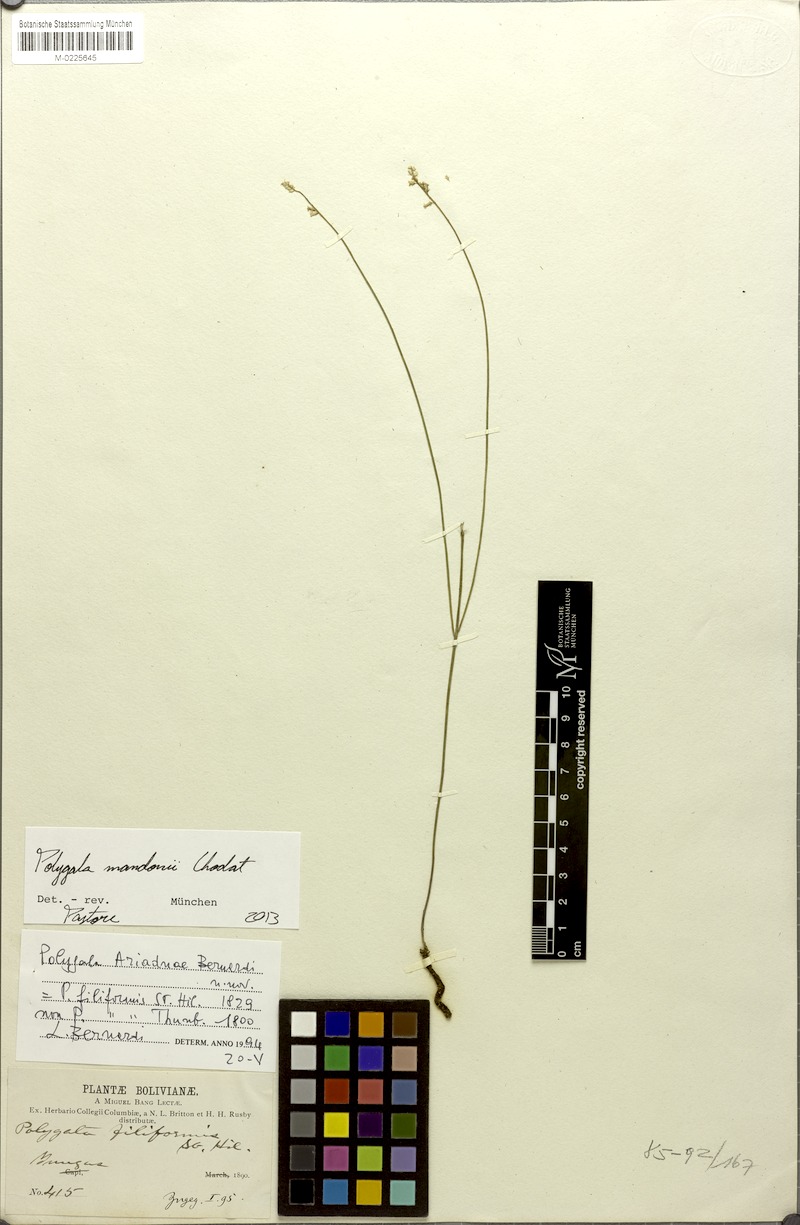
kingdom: Plantae
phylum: Tracheophyta
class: Magnoliopsida
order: Fabales
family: Polygalaceae
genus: Polygala
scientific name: Polygala mandonii
